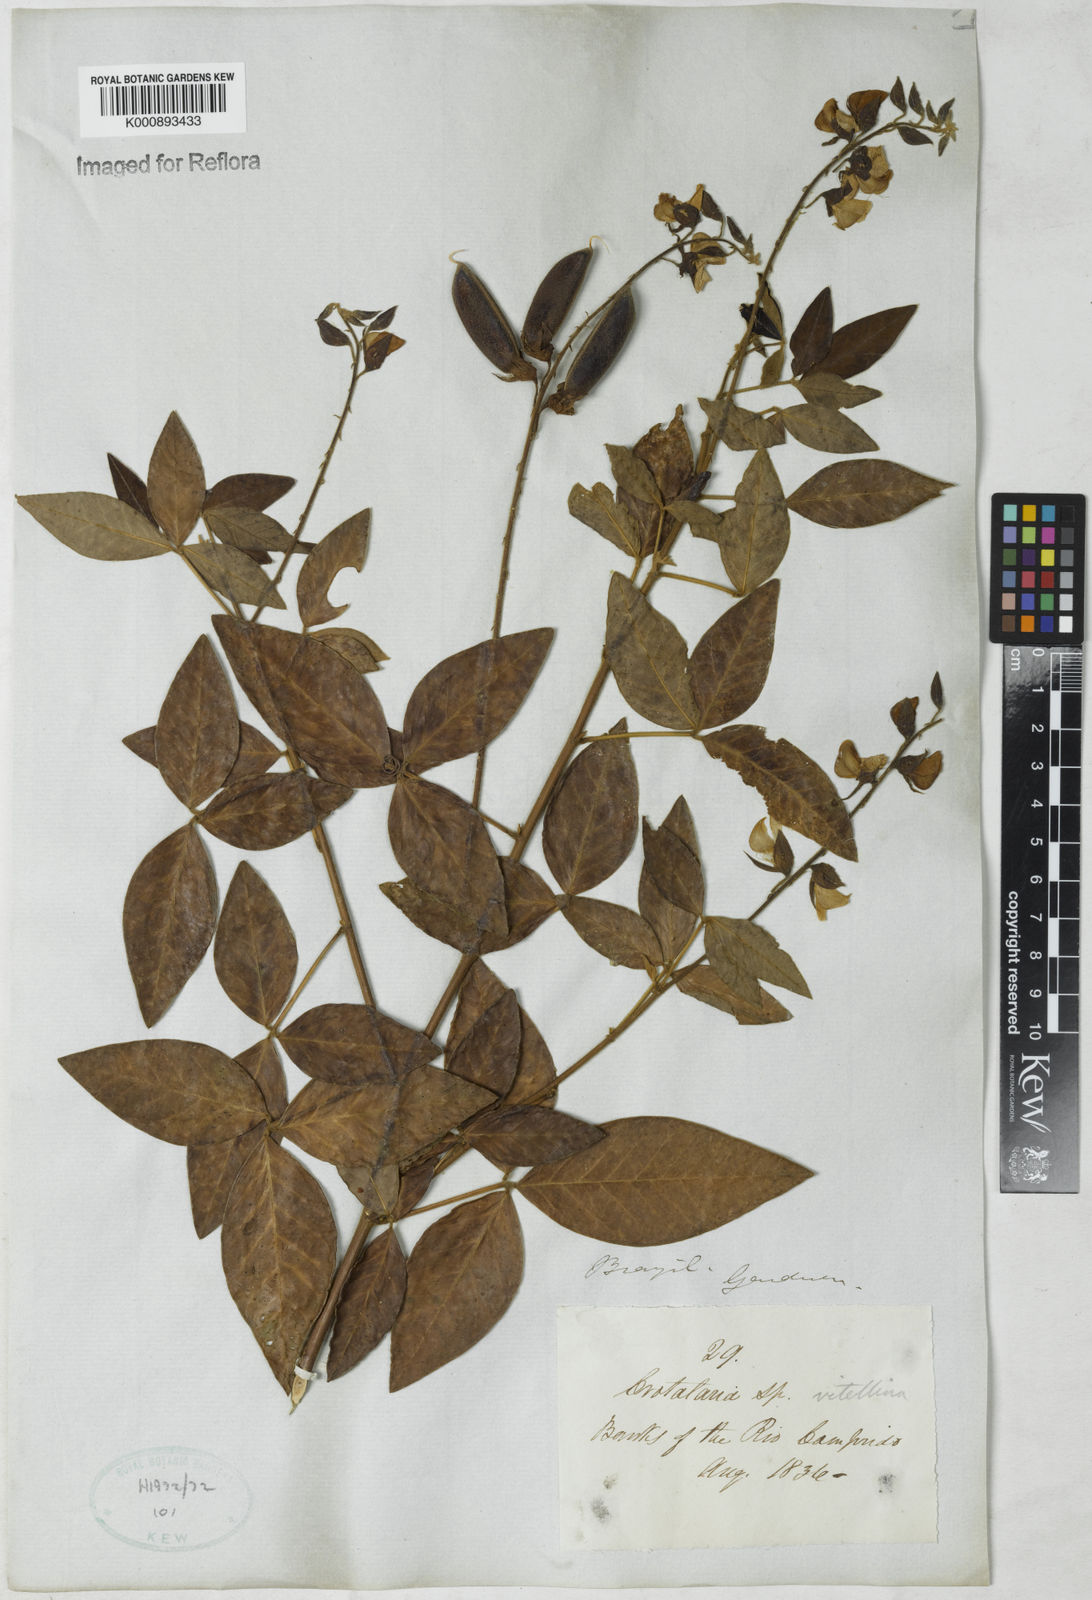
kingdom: Plantae
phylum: Tracheophyta
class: Magnoliopsida
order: Fabales
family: Fabaceae
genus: Crotalaria
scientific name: Crotalaria vitellina
